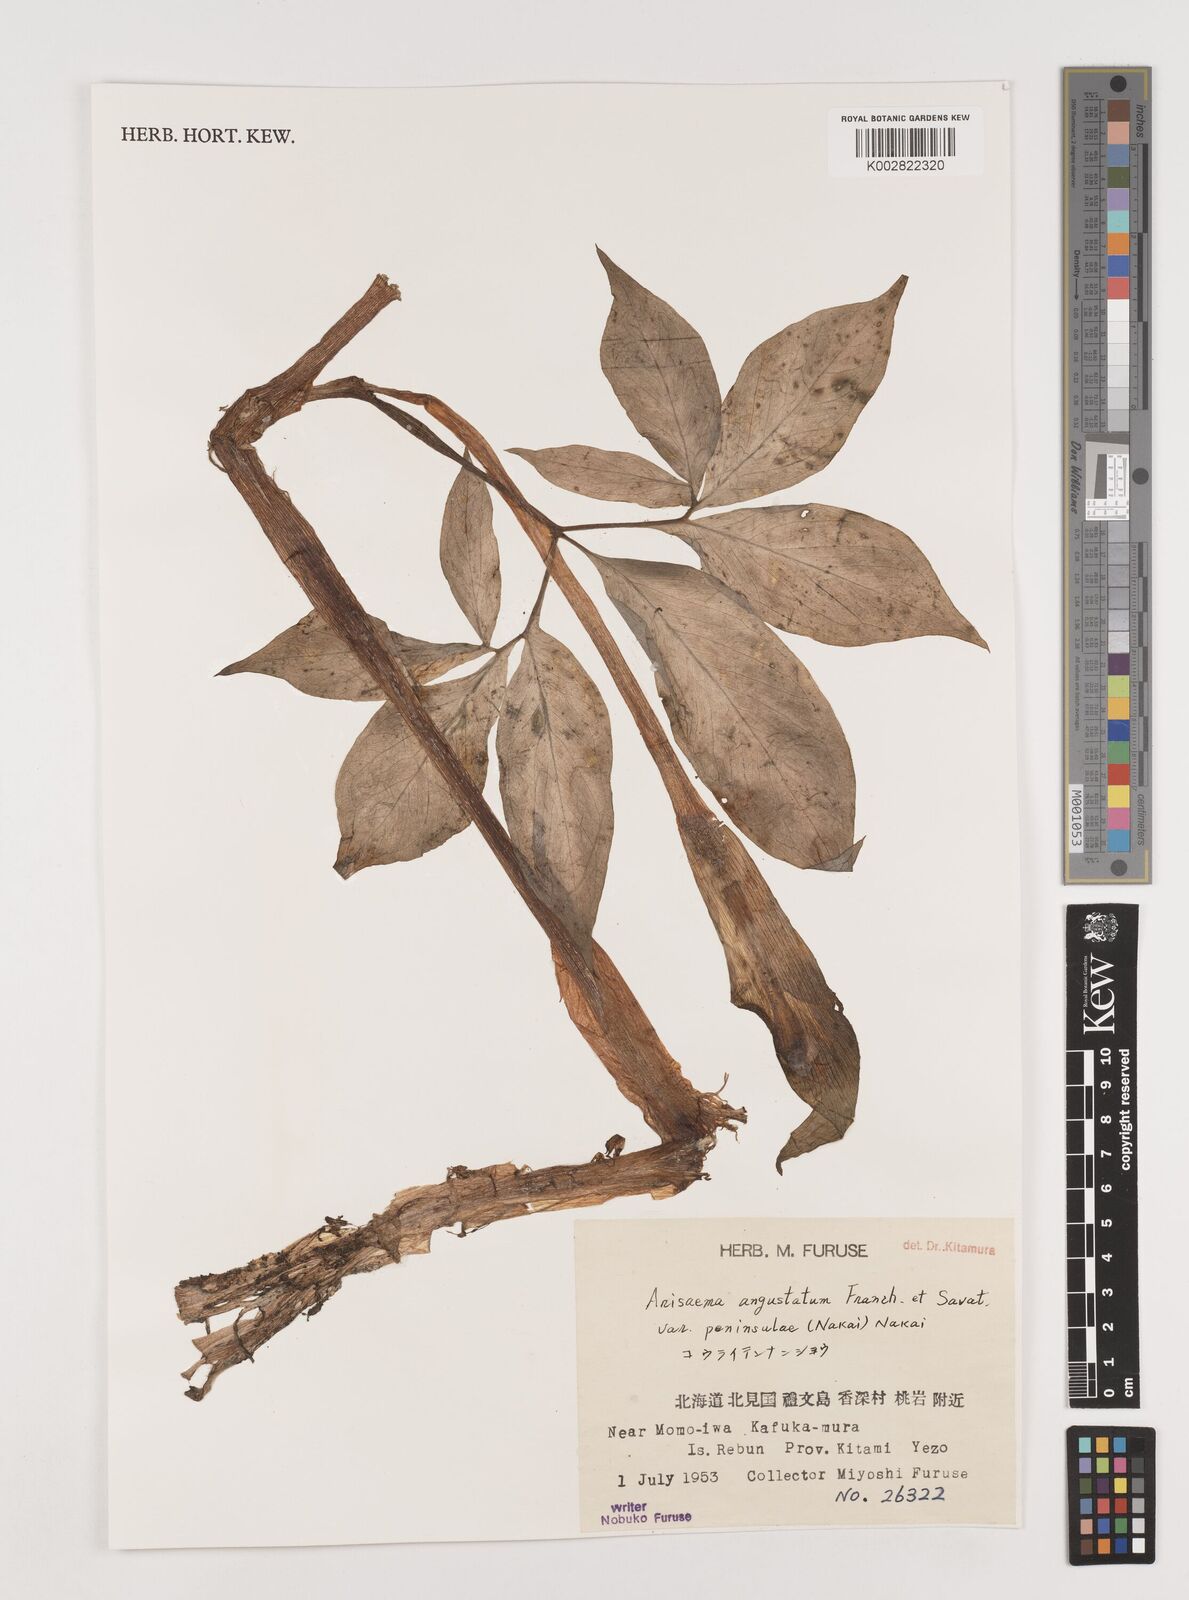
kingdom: Plantae
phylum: Tracheophyta
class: Liliopsida
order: Alismatales
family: Araceae
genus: Arisaema
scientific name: Arisaema angustatum
